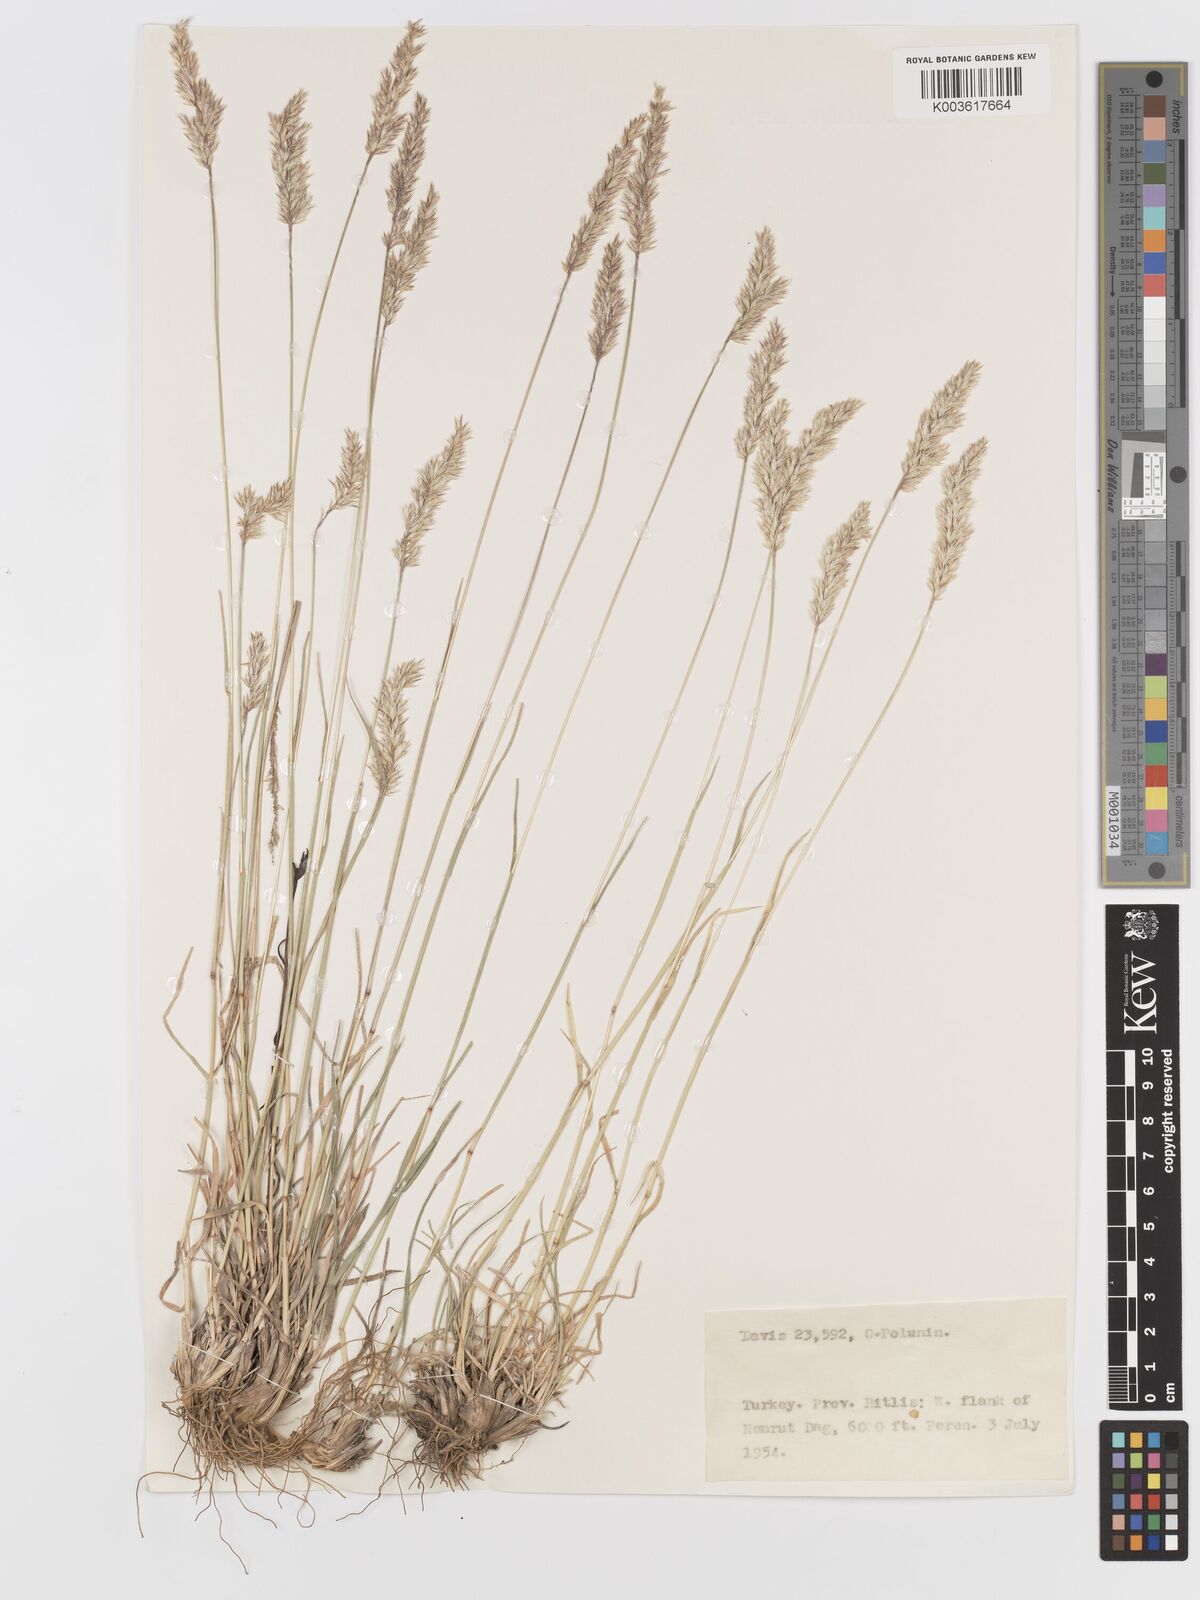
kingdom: Plantae
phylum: Tracheophyta
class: Liliopsida
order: Poales
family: Poaceae
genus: Koeleria
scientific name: Koeleria
